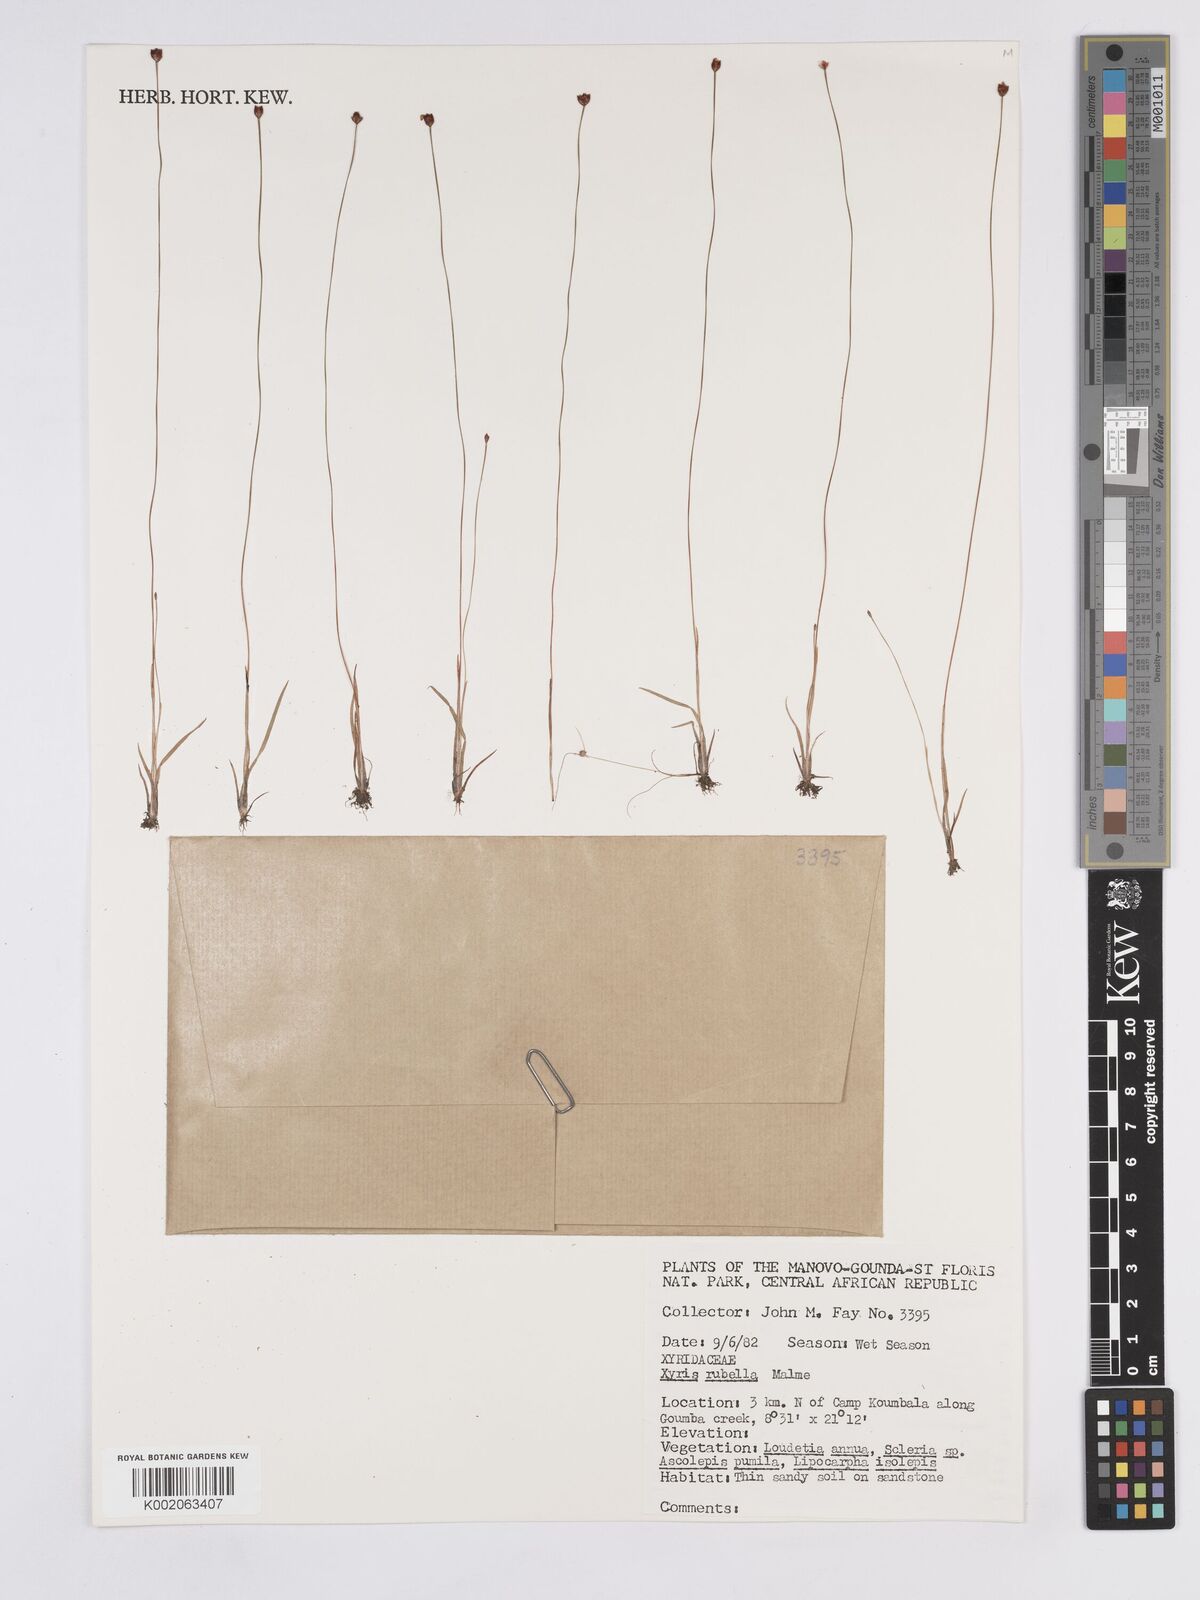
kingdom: Plantae
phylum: Tracheophyta
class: Liliopsida
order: Poales
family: Xyridaceae
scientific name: Xyridaceae
